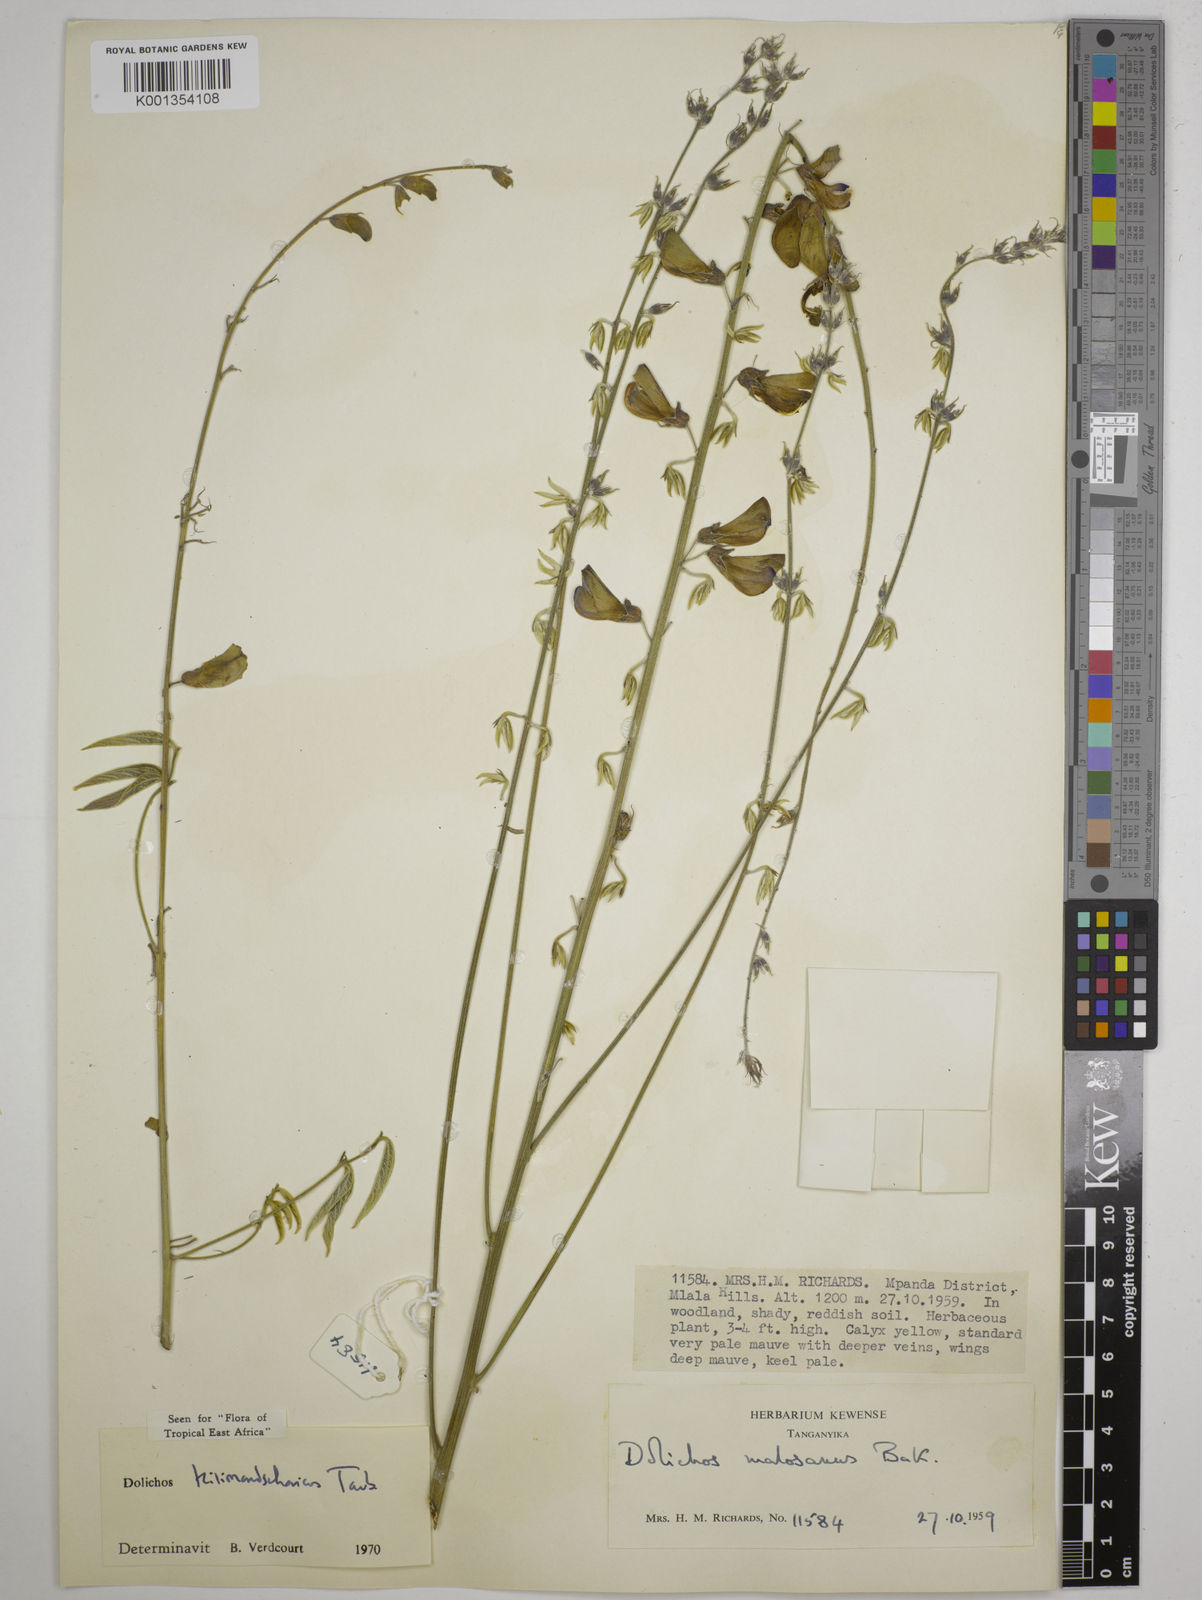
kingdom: Plantae
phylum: Tracheophyta
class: Magnoliopsida
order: Fabales
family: Fabaceae
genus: Dolichos
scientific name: Dolichos kilimandscharicus
